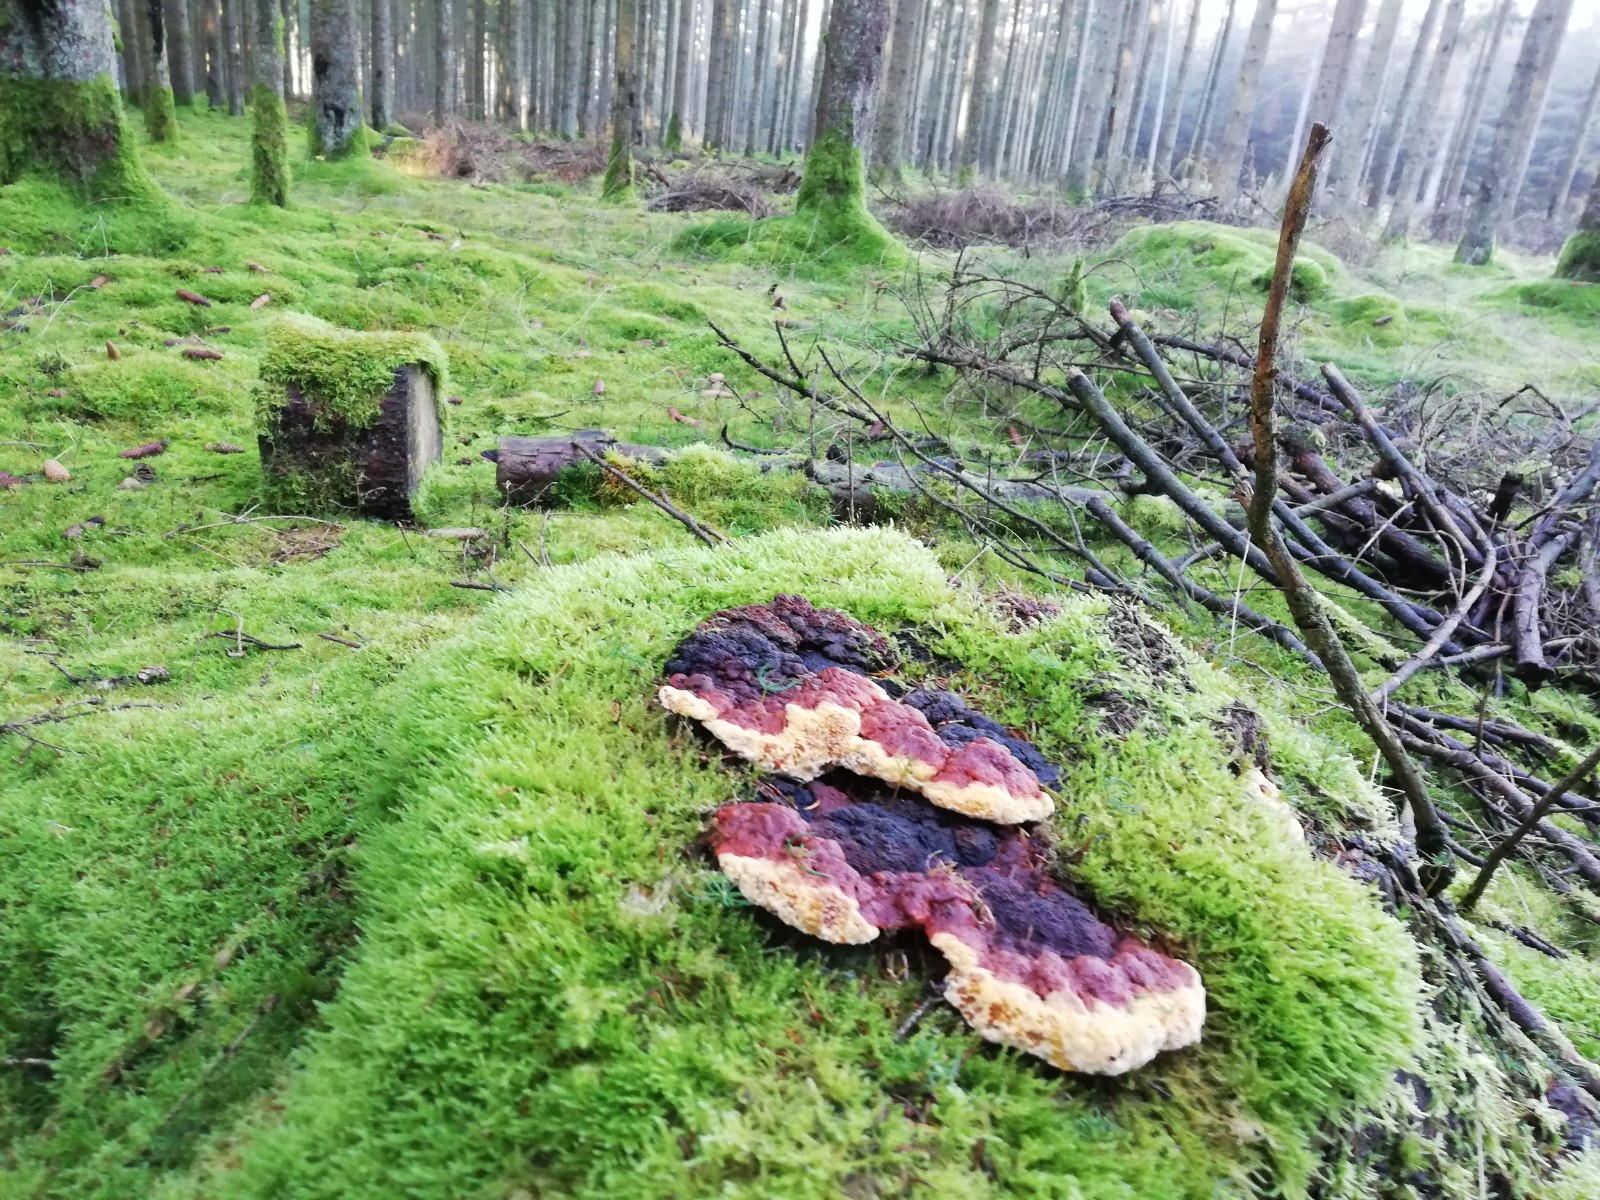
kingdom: Fungi
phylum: Basidiomycota
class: Agaricomycetes
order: Polyporales
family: Fomitopsidaceae
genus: Fomitopsis
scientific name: Fomitopsis pinicola
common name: randbæltet hovporesvamp
